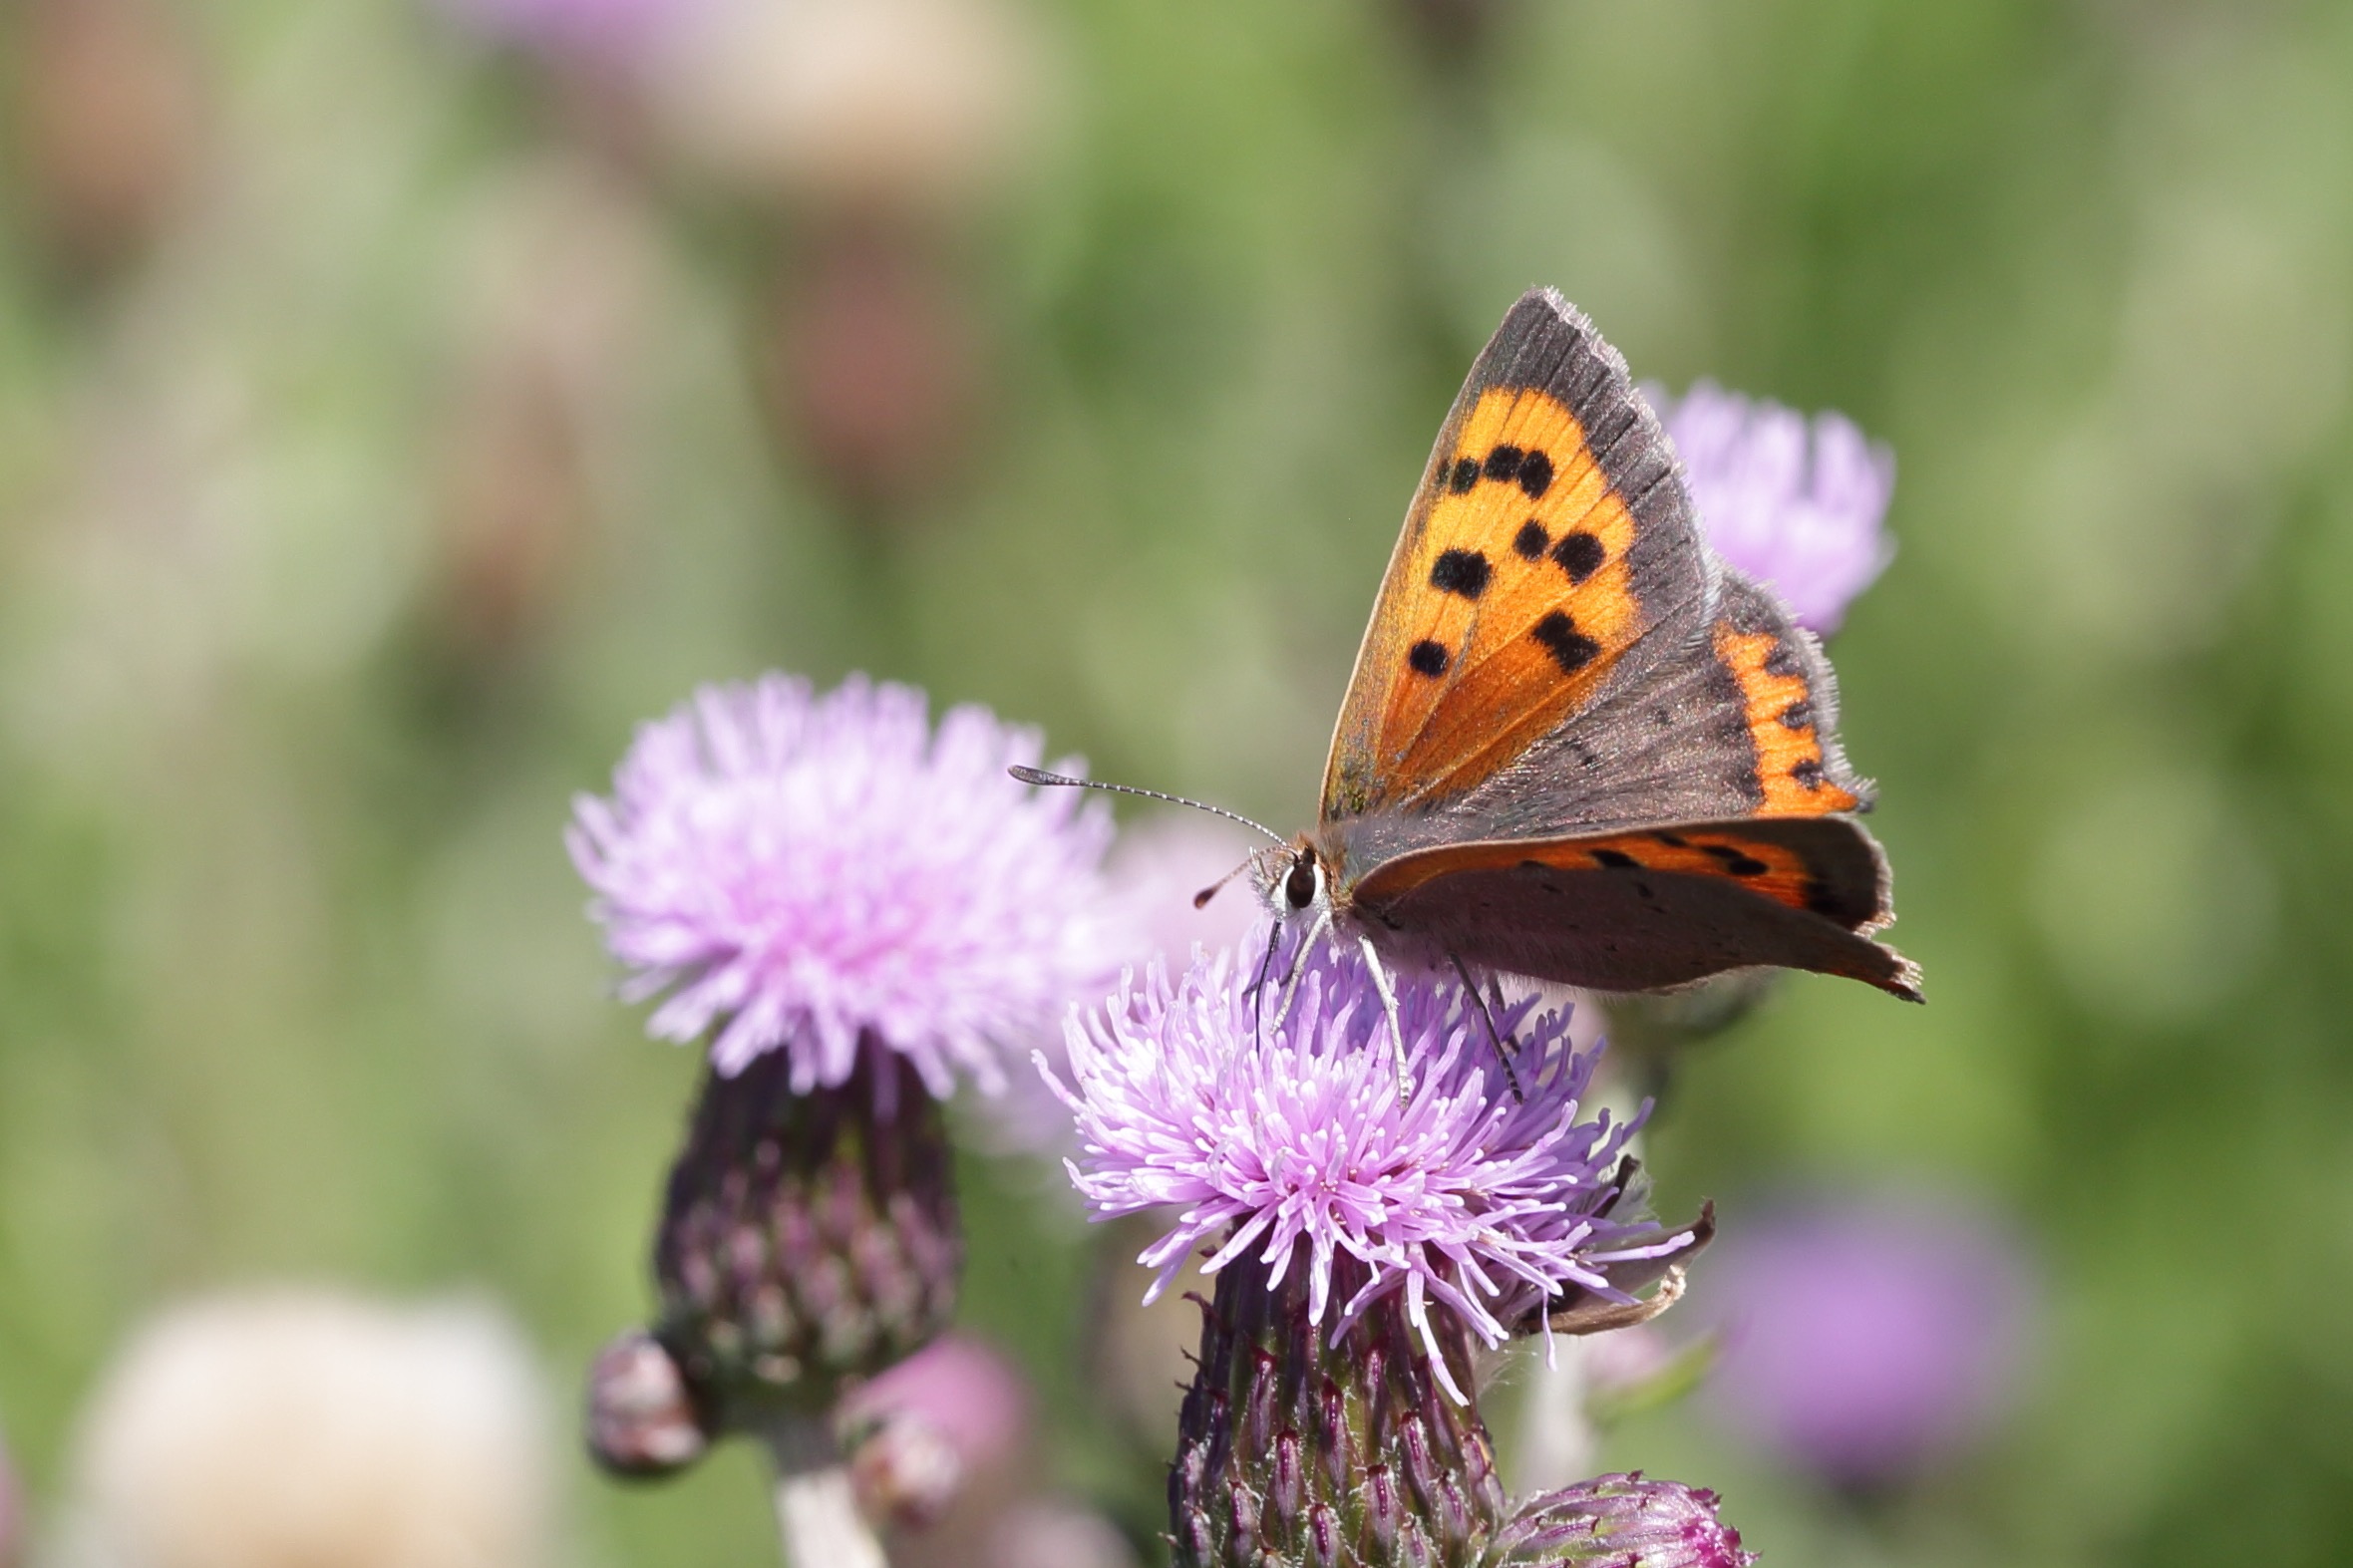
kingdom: Animalia
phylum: Arthropoda
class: Insecta
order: Lepidoptera
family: Lycaenidae
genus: Lycaena
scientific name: Lycaena phlaeas
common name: Lille ildfugl
